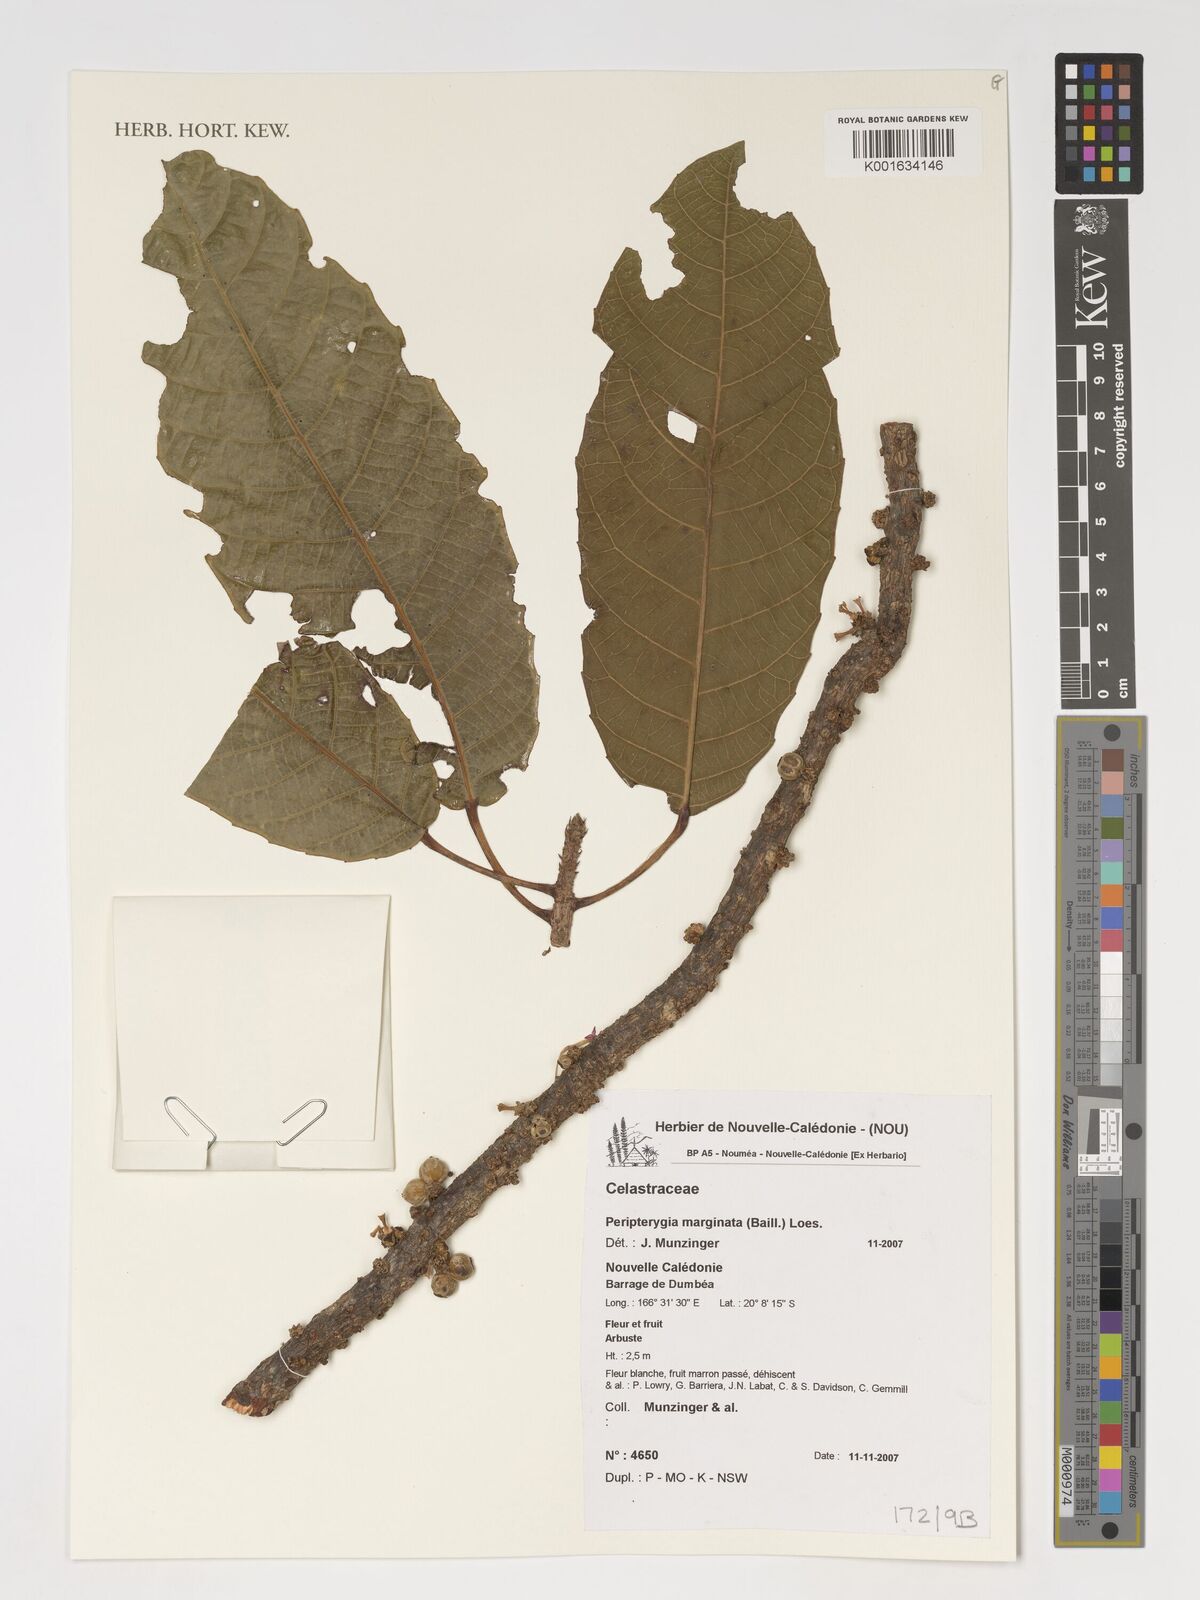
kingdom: Plantae
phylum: Tracheophyta
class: Magnoliopsida
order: Celastrales
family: Celastraceae
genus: Peripterygia
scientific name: Peripterygia marginata
